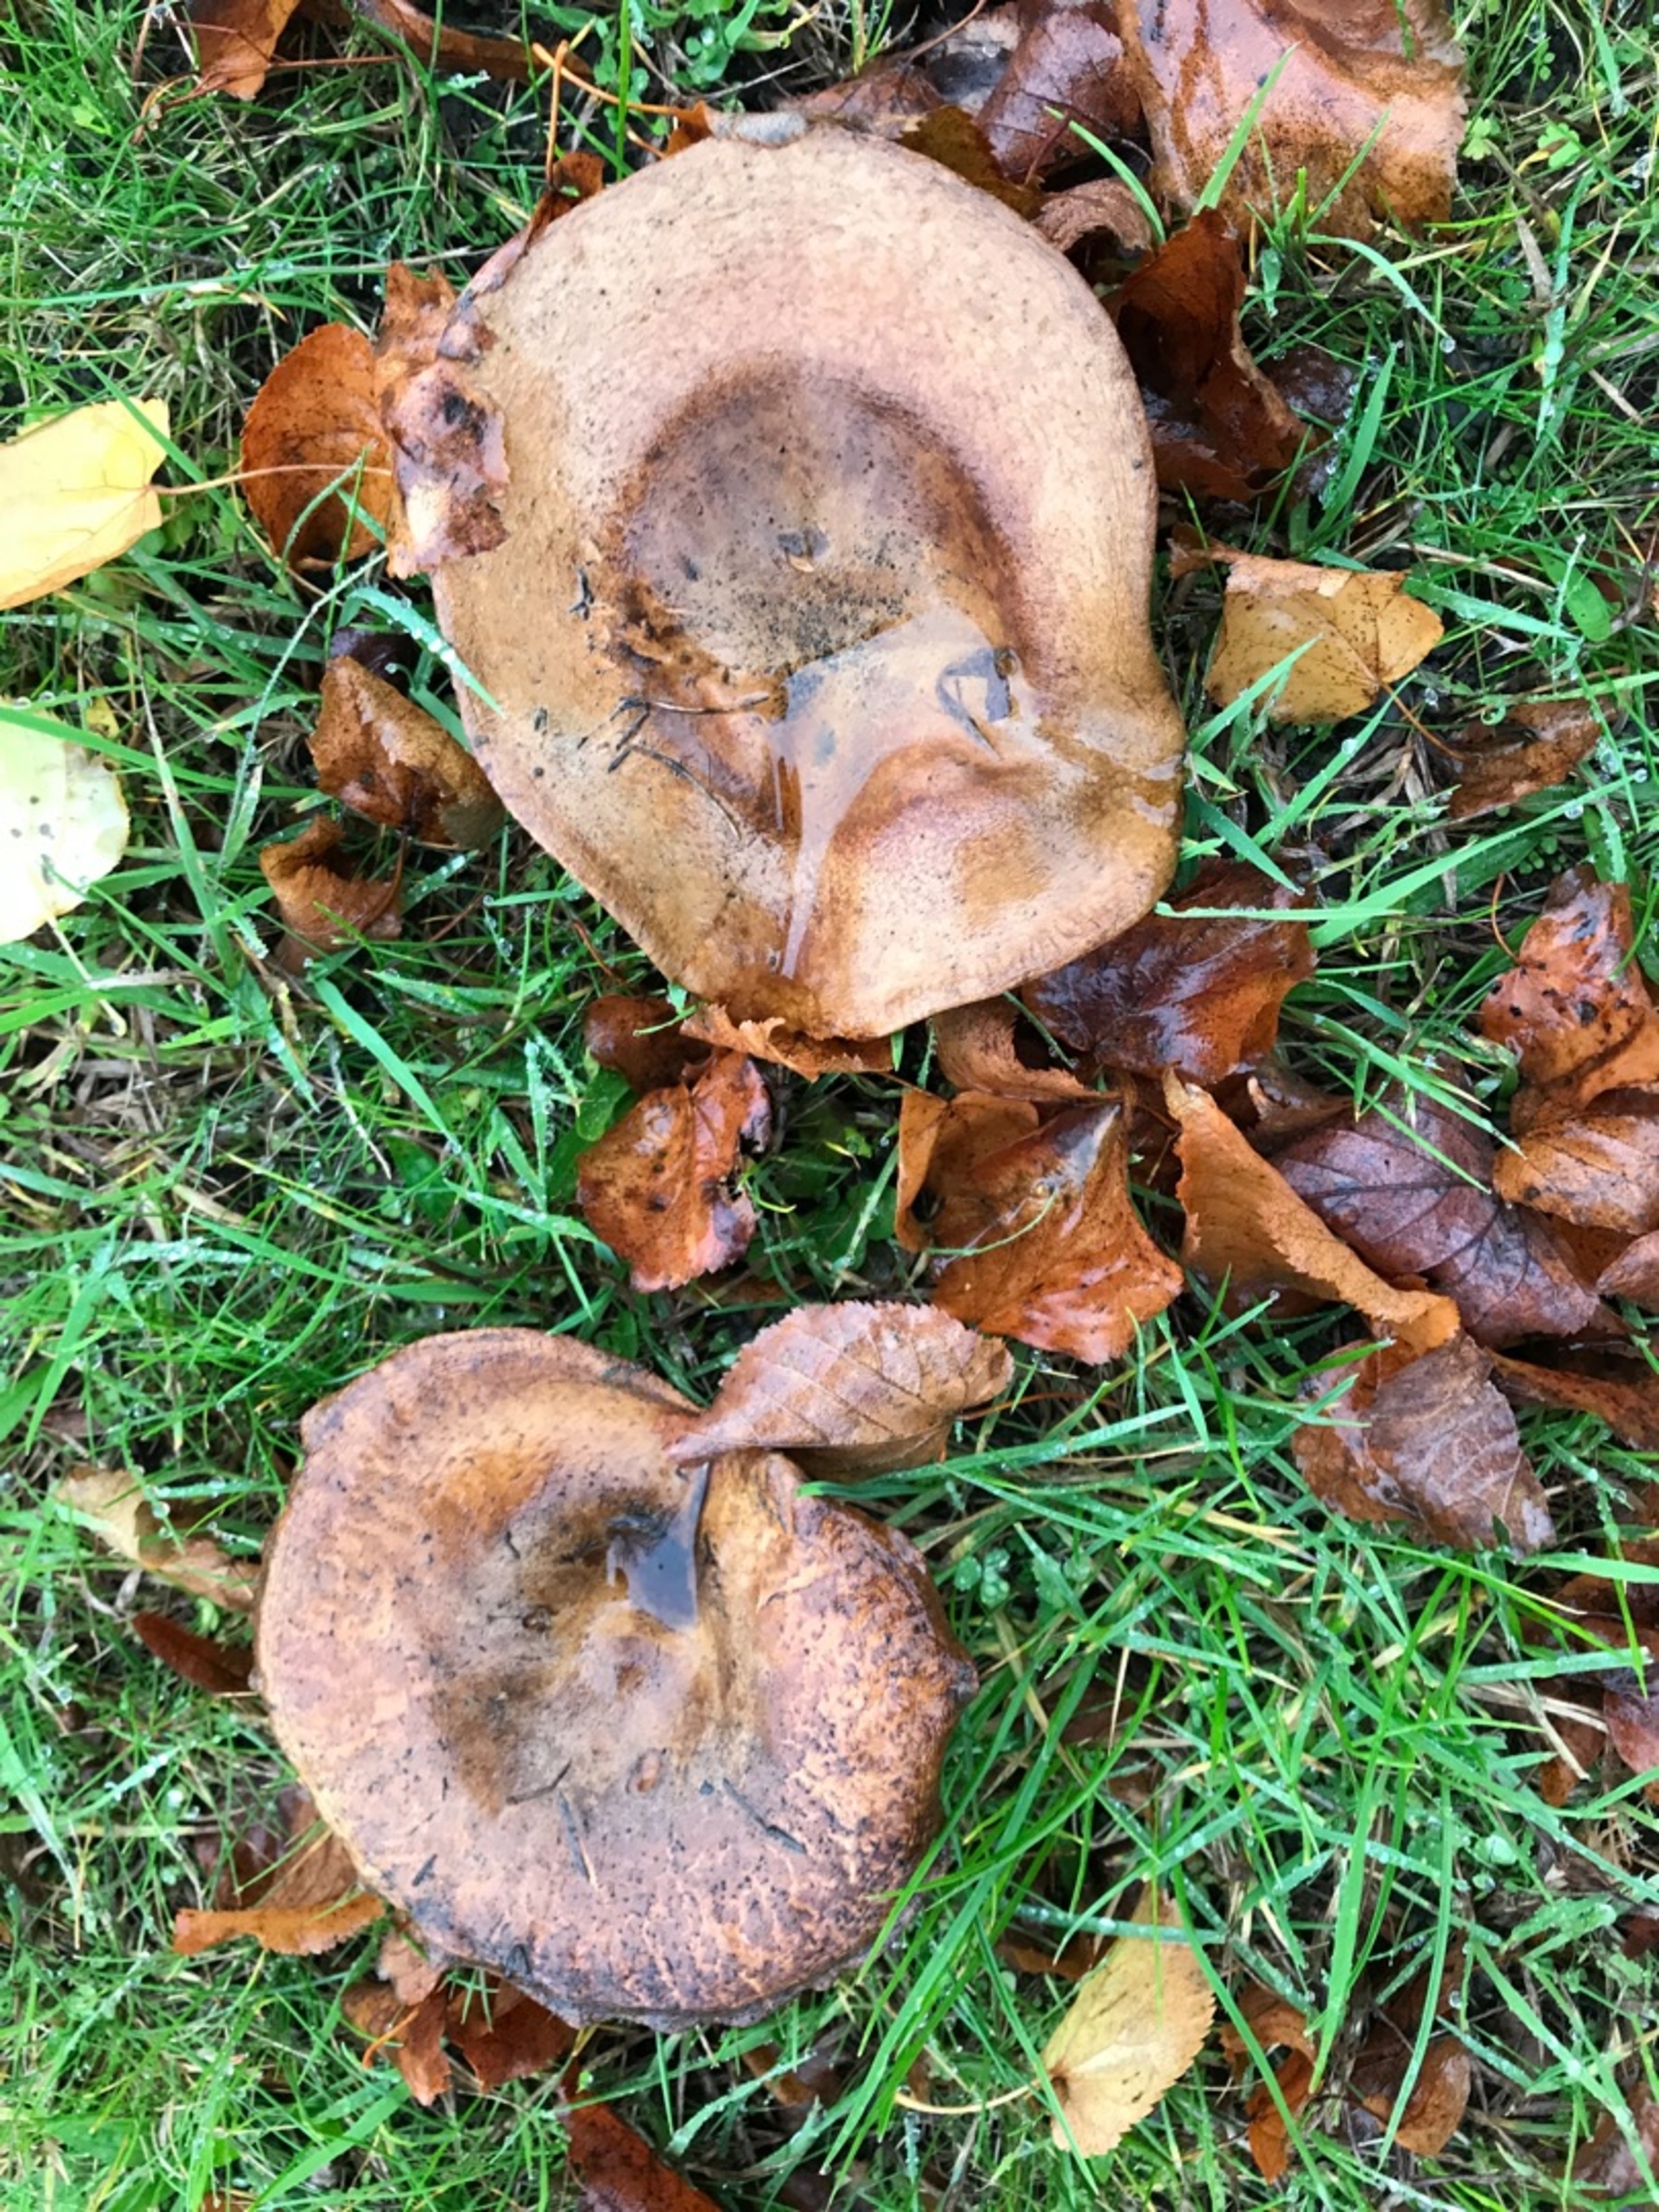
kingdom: Fungi
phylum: Basidiomycota
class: Agaricomycetes
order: Boletales
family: Paxillaceae
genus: Paxillus
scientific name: Paxillus
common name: Netbladhat
